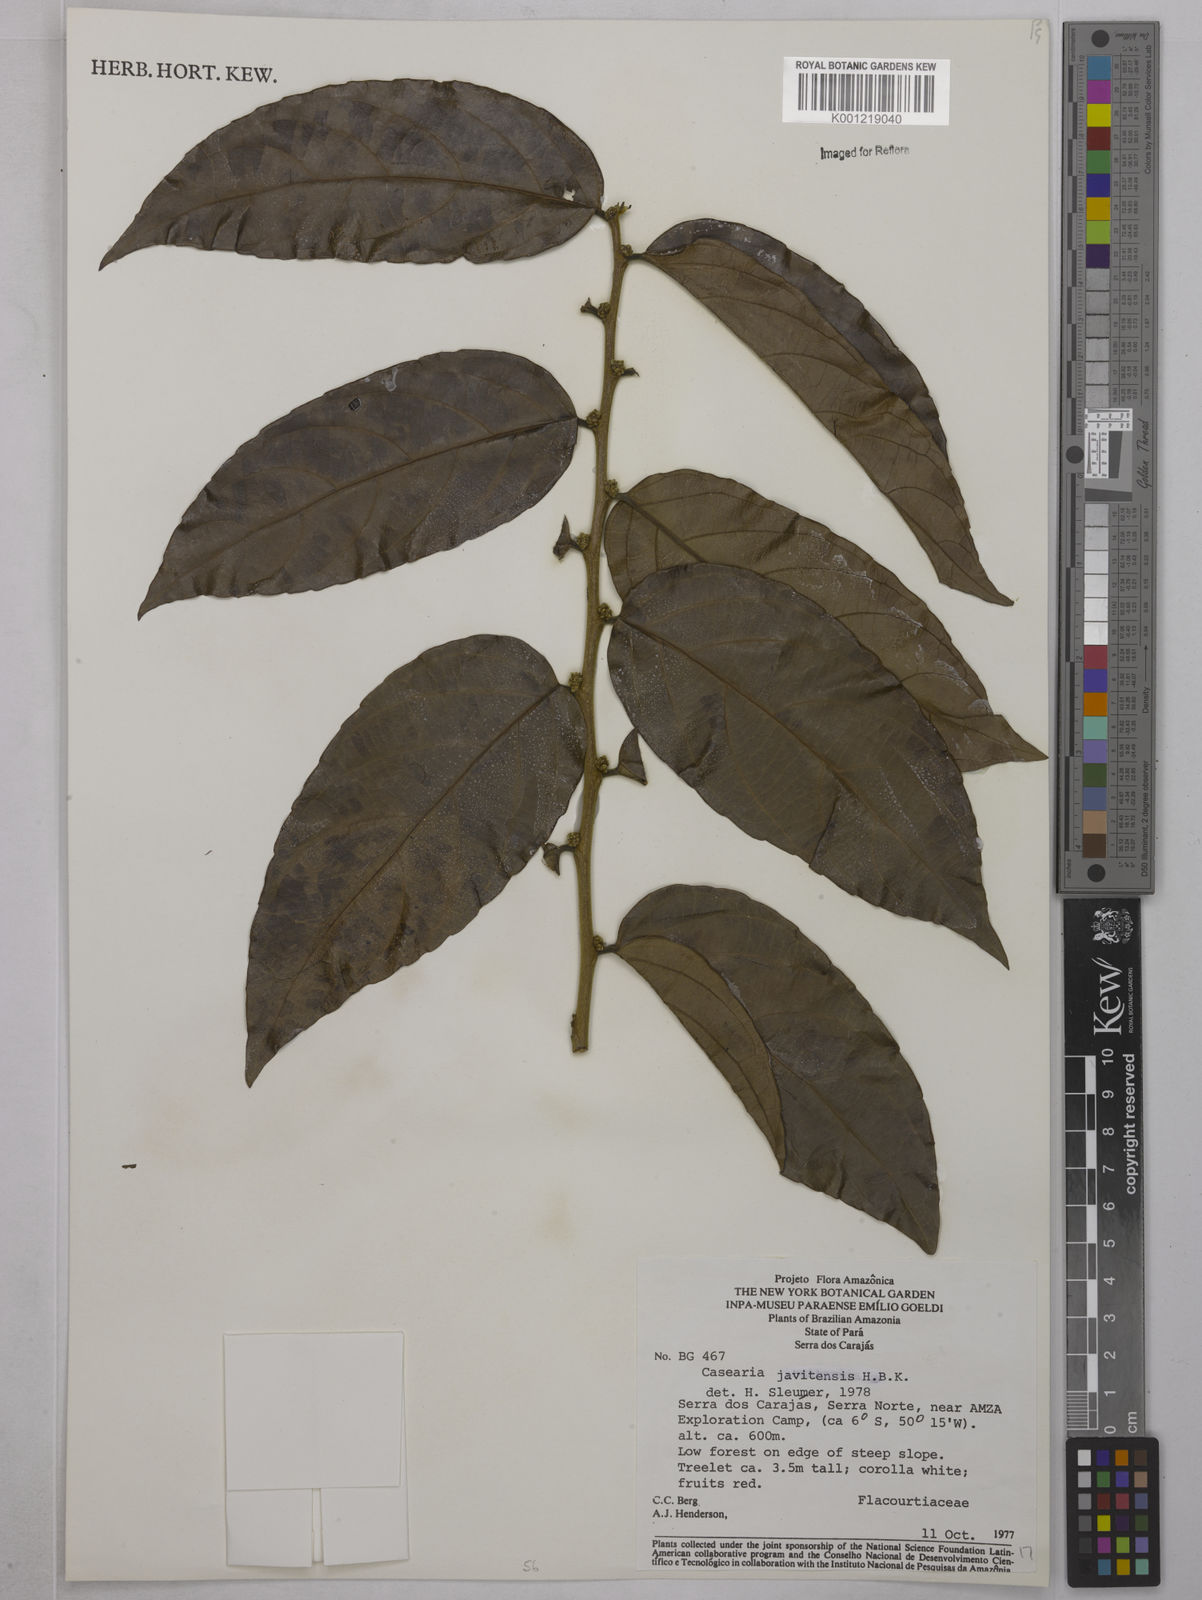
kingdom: Plantae
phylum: Tracheophyta
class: Magnoliopsida
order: Malpighiales
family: Salicaceae
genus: Piparea
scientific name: Piparea multiflora
